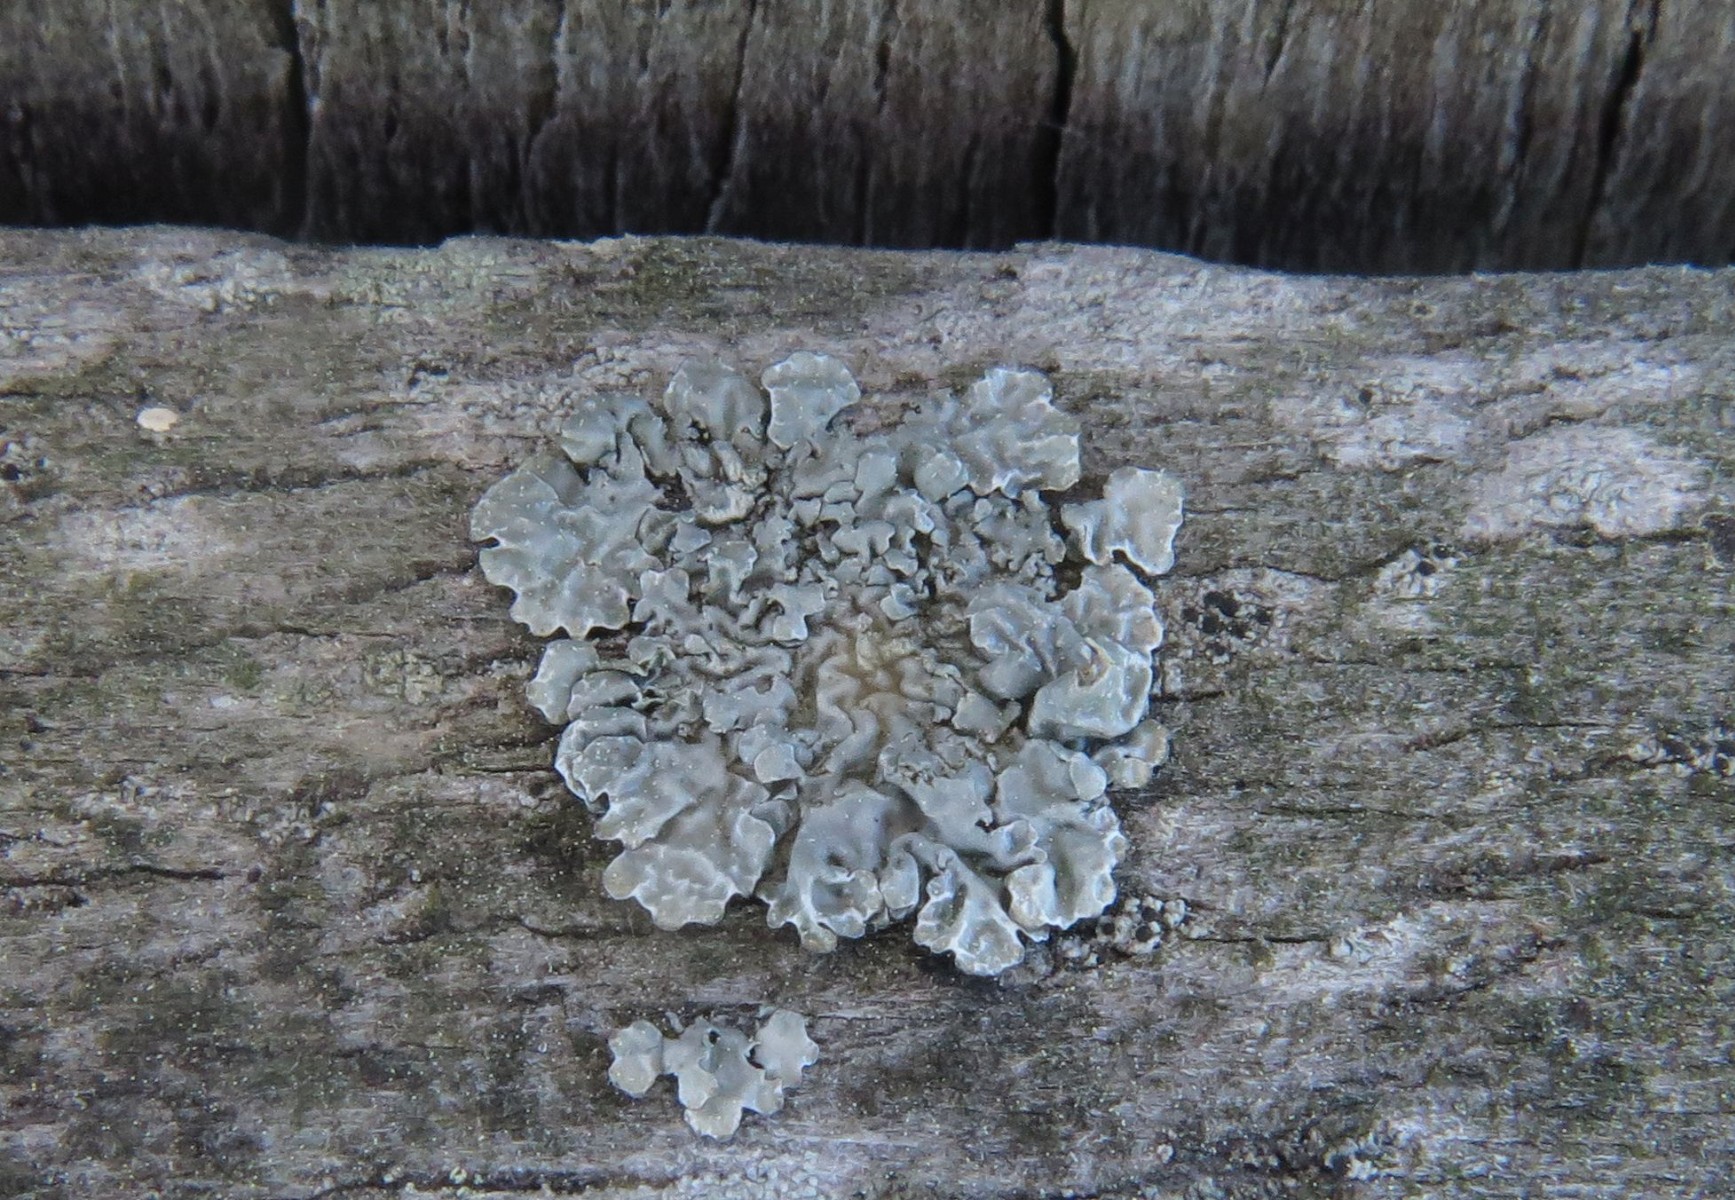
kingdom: Fungi
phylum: Ascomycota
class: Lecanoromycetes
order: Lecanorales
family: Parmeliaceae
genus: Parmelia
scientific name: Parmelia sulcata
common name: rynket skållav
